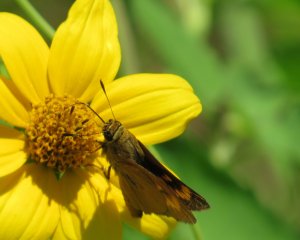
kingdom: Animalia
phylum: Arthropoda
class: Insecta
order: Lepidoptera
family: Hesperiidae
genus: Problema
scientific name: Problema byssus
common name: Byssus Skipper
